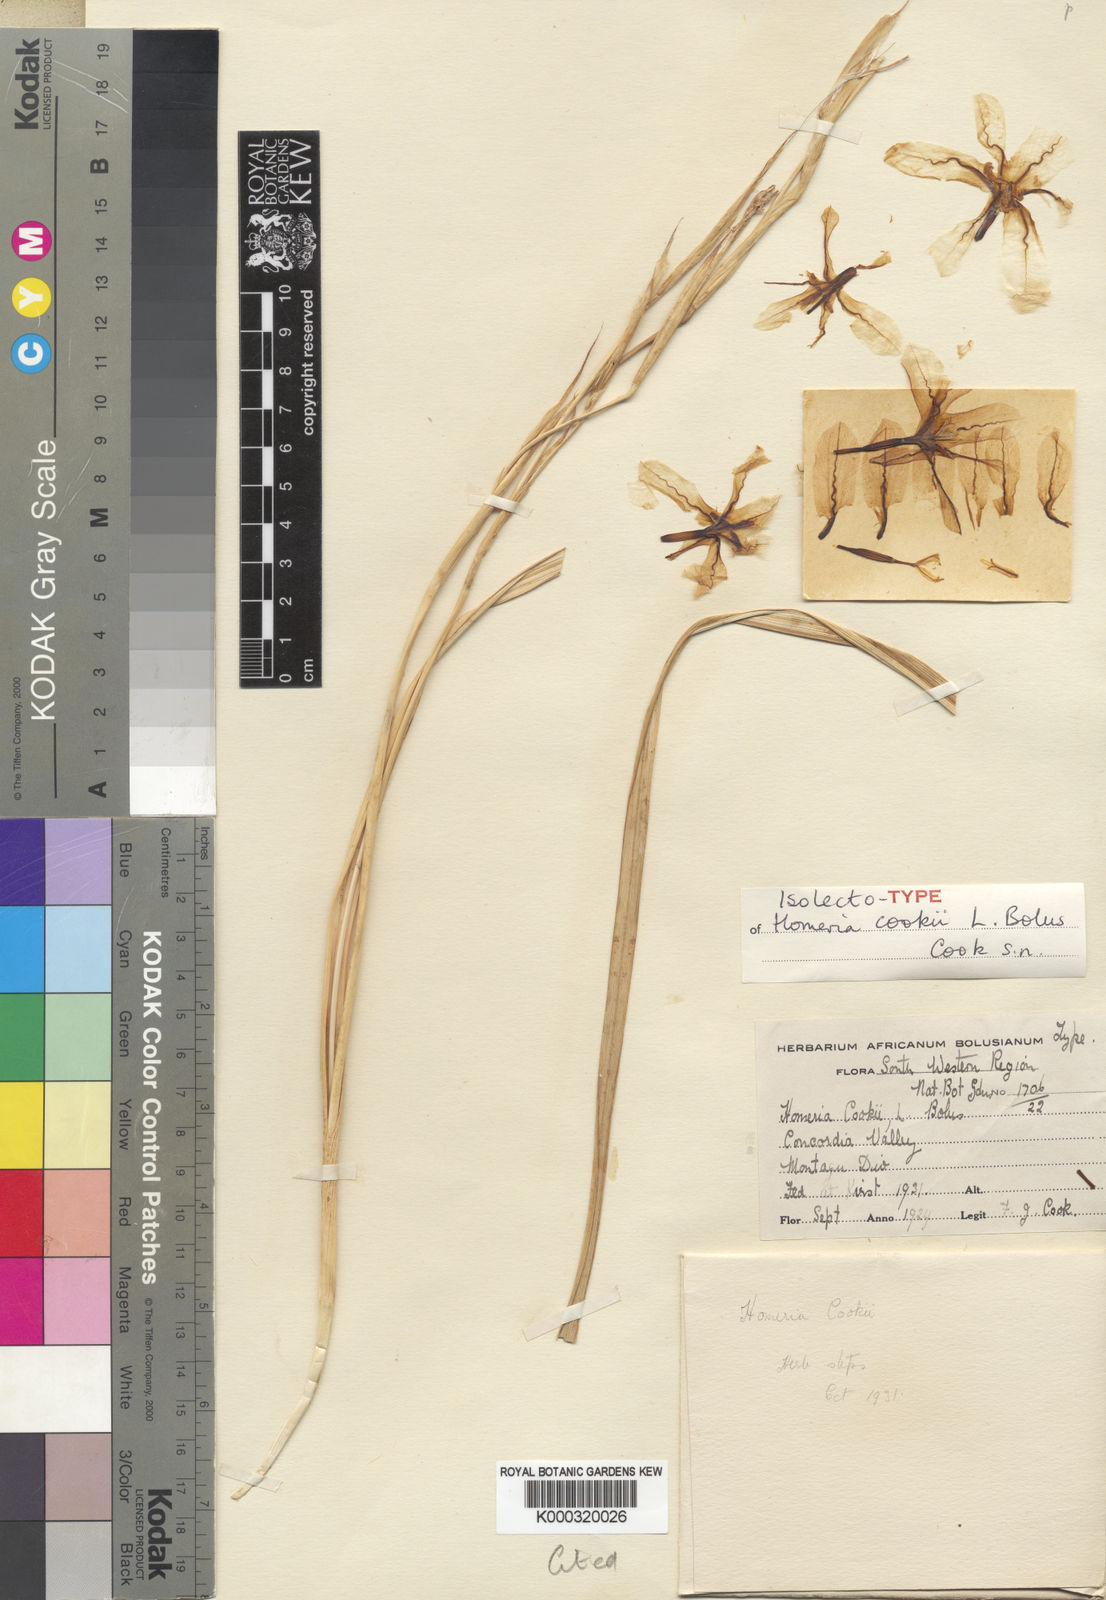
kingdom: Plantae
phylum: Tracheophyta
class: Liliopsida
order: Asparagales
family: Iridaceae
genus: Moraea
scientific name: Moraea cookii
